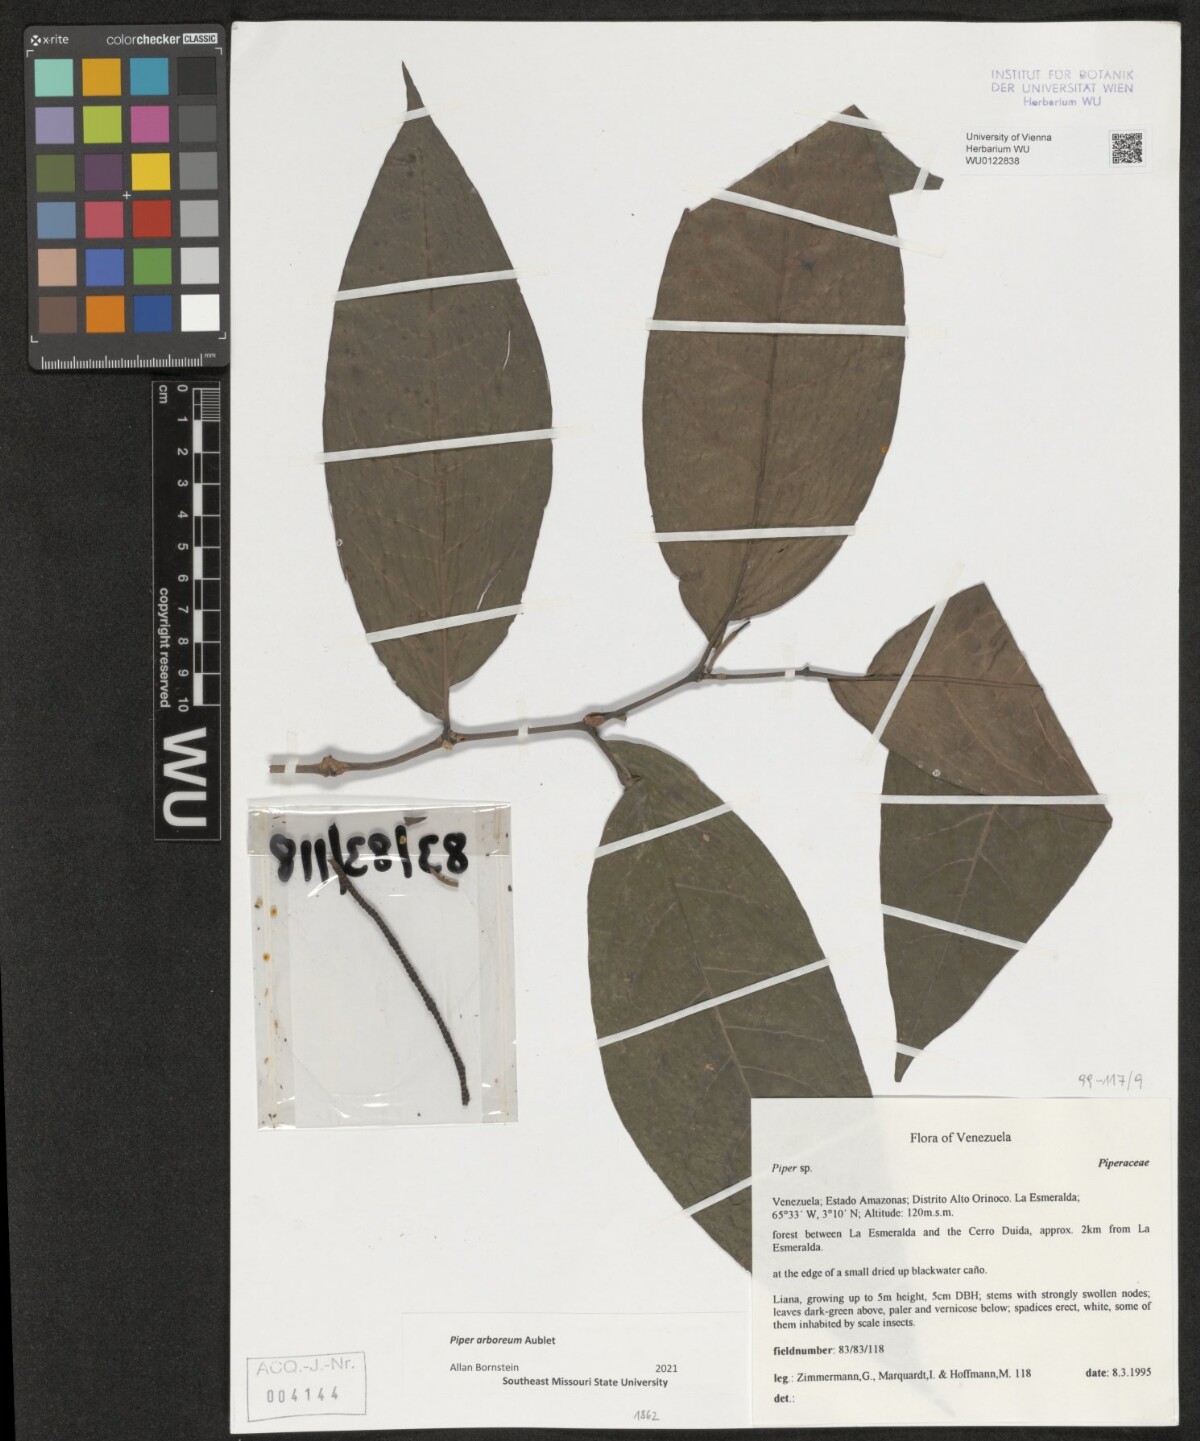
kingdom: Plantae
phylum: Tracheophyta
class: Magnoliopsida
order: Piperales
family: Piperaceae
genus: Piper
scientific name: Piper arboreum
